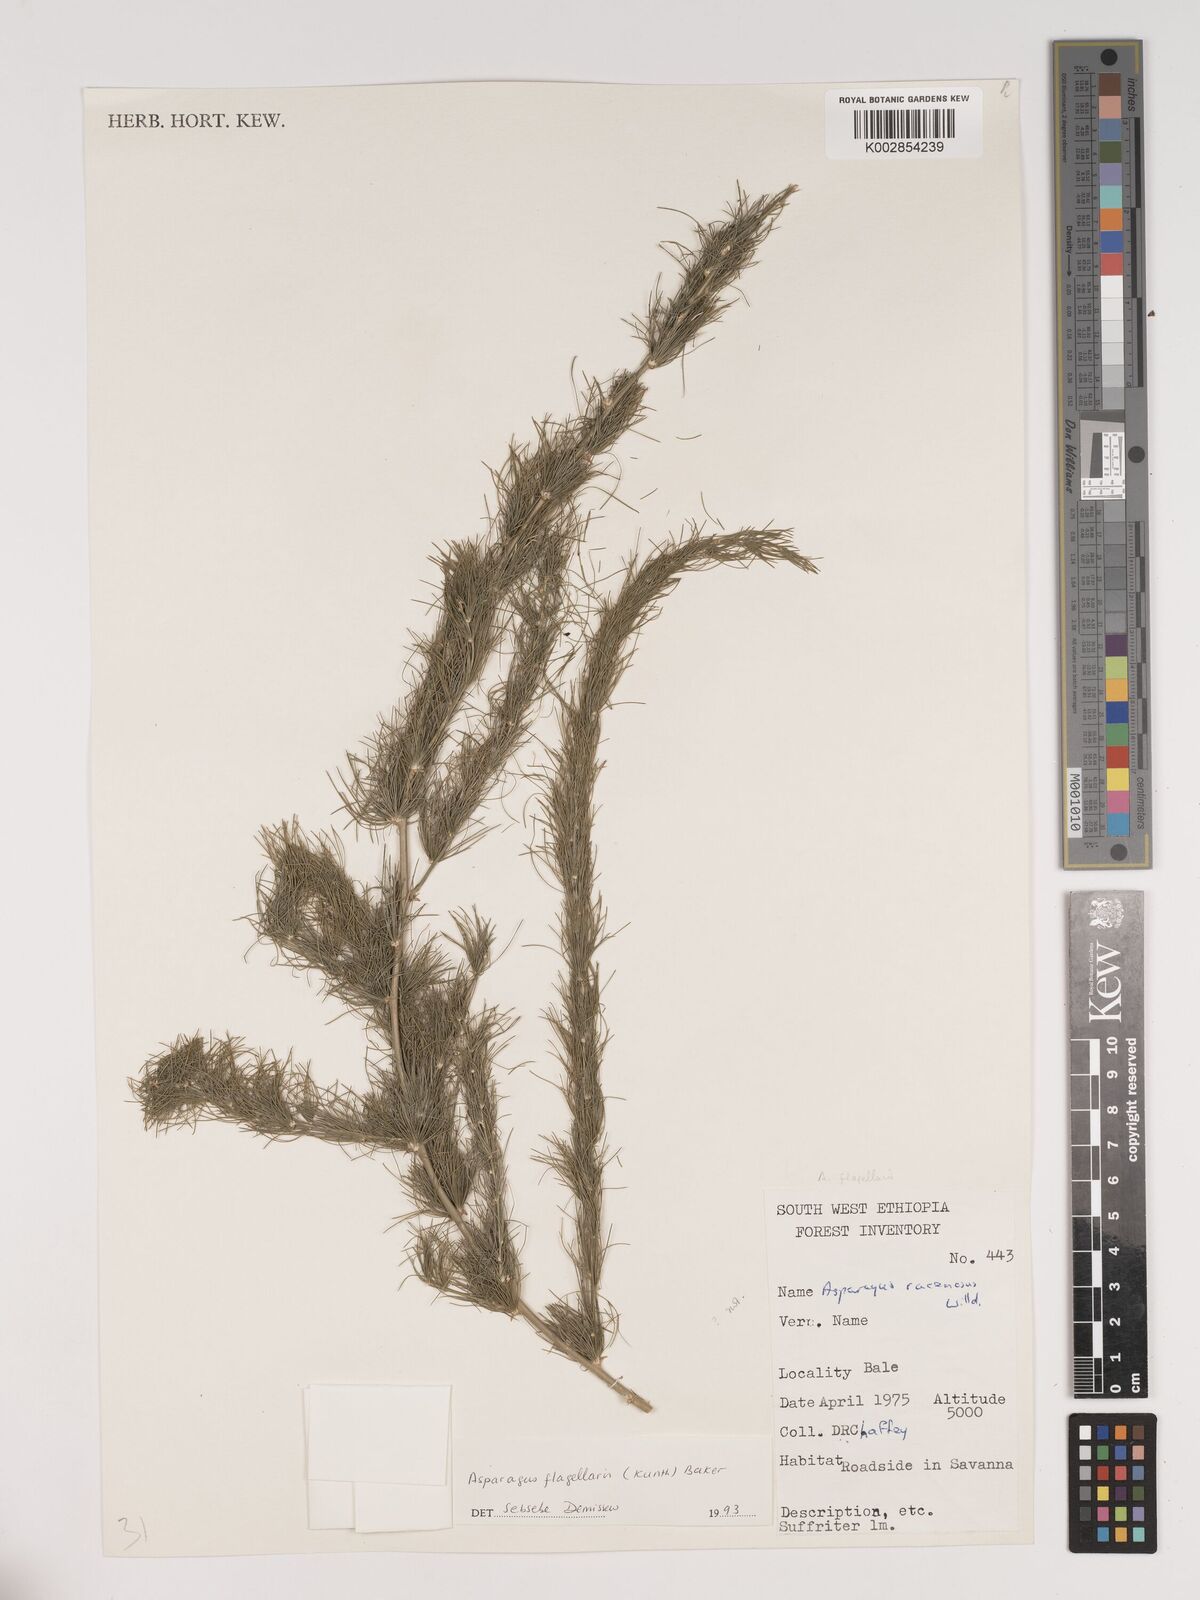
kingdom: Plantae
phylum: Tracheophyta
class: Liliopsida
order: Asparagales
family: Asparagaceae
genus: Asparagus
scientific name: Asparagus flagellaris
